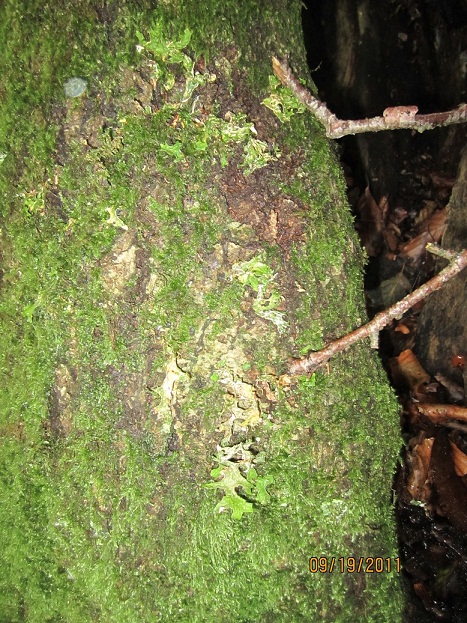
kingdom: Fungi
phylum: Ascomycota
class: Lecanoromycetes
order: Peltigerales
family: Lobariaceae
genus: Lobaria
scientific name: Lobaria pulmonaria
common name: almindelig lungelav
